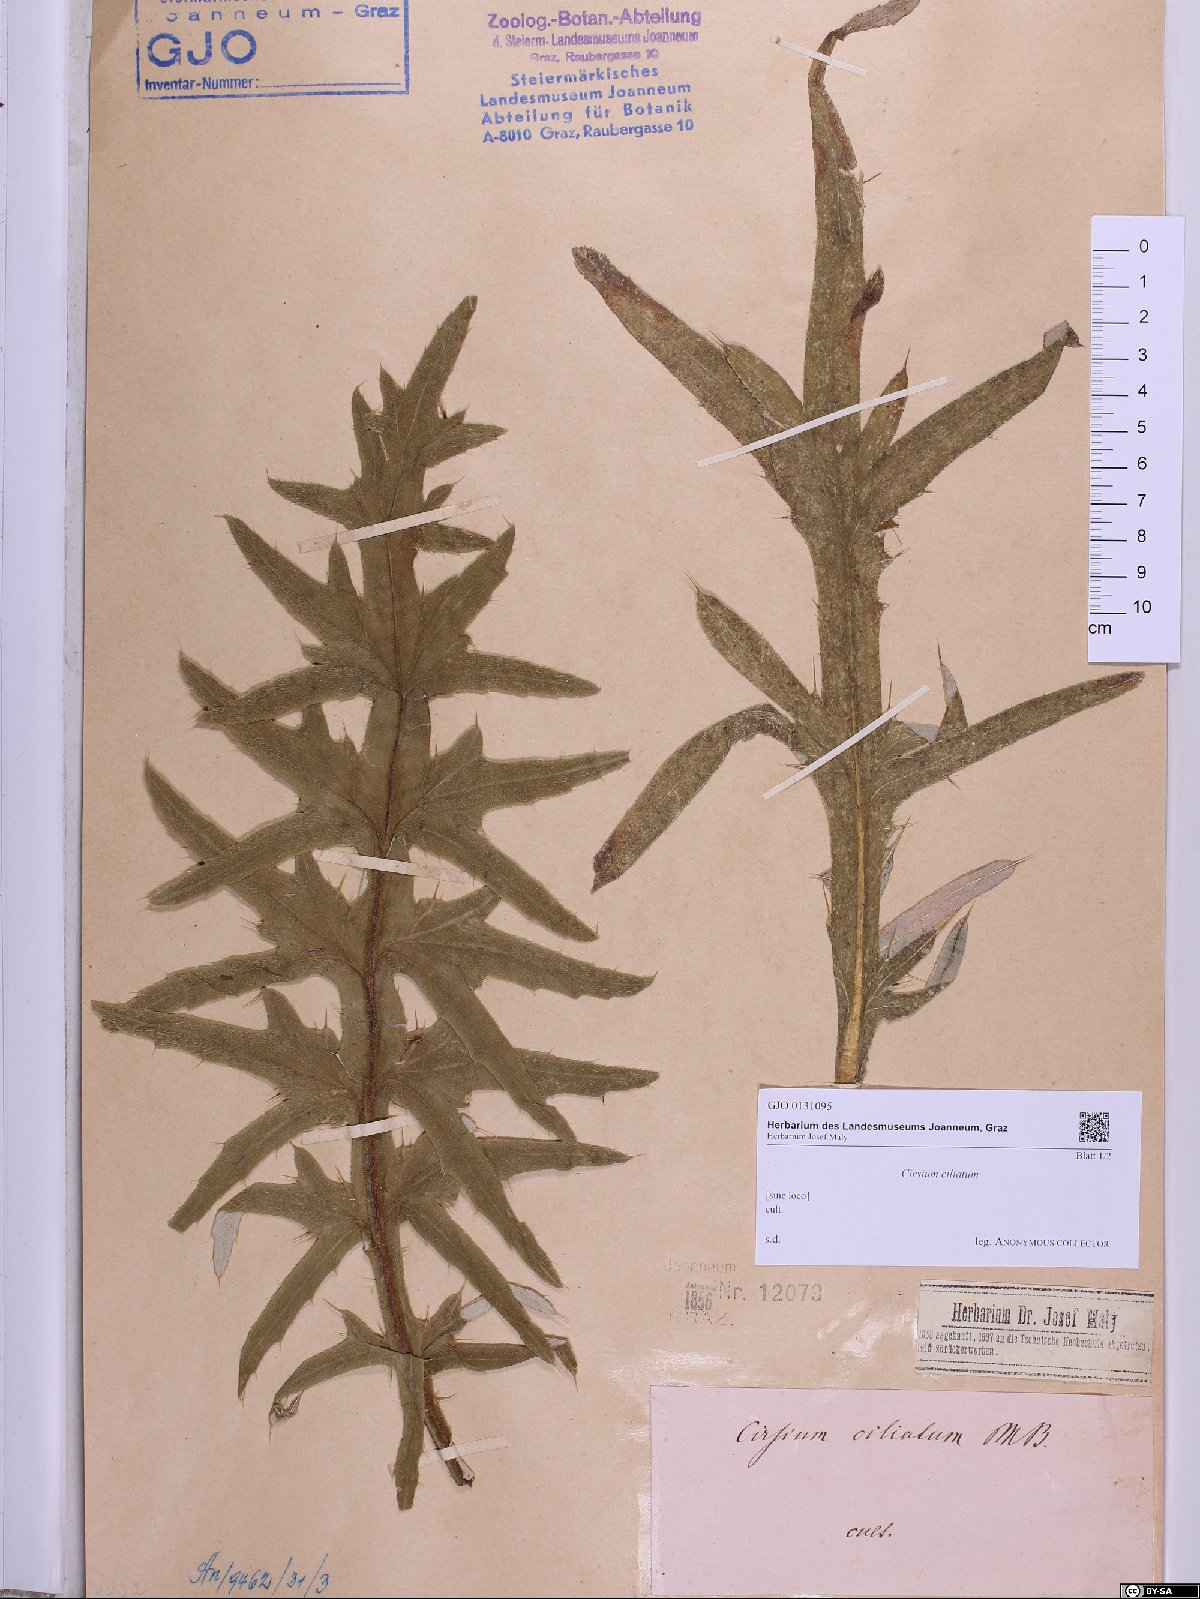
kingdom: Plantae
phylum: Tracheophyta
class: Magnoliopsida
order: Asterales
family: Asteraceae
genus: Lophiolepis
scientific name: Lophiolepis ciliata
